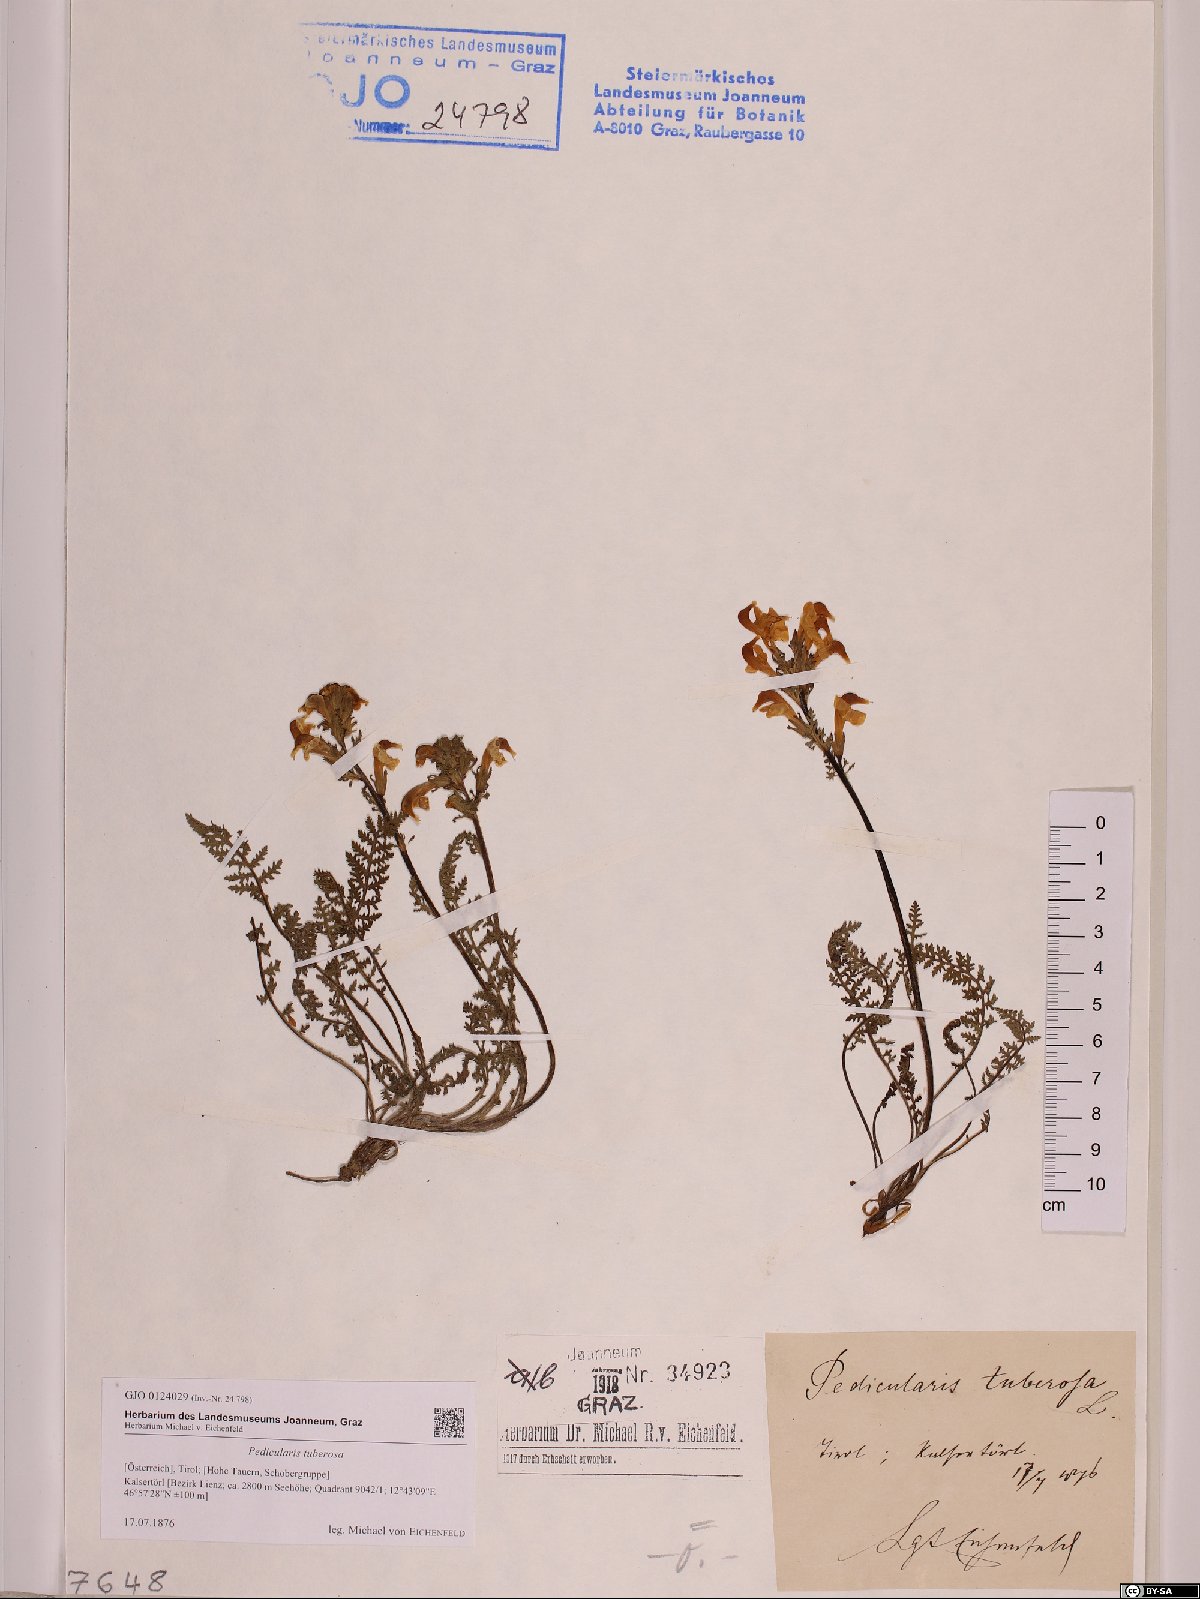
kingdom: Plantae
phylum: Tracheophyta
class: Magnoliopsida
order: Lamiales
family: Orobanchaceae
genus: Pedicularis
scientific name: Pedicularis tuberosa
